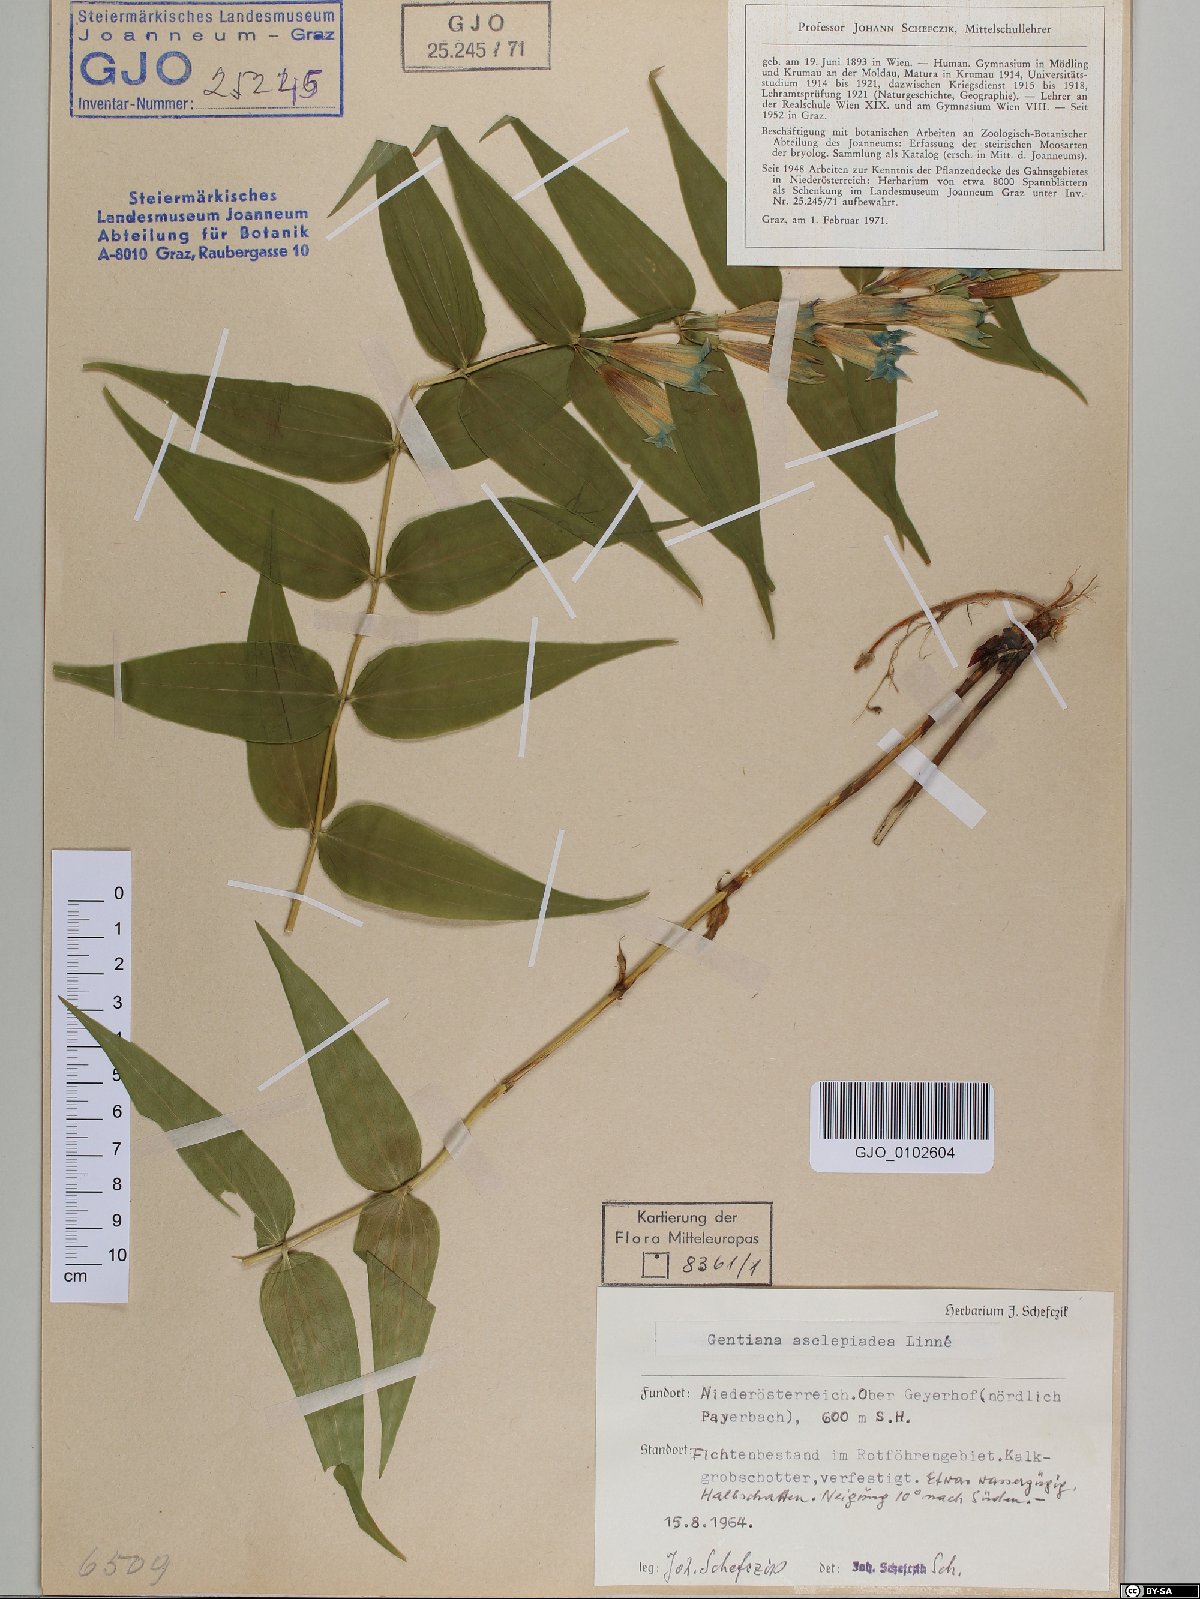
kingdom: Plantae
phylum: Tracheophyta
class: Magnoliopsida
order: Gentianales
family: Gentianaceae
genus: Gentiana
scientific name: Gentiana asclepiadea
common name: Willow gentian
